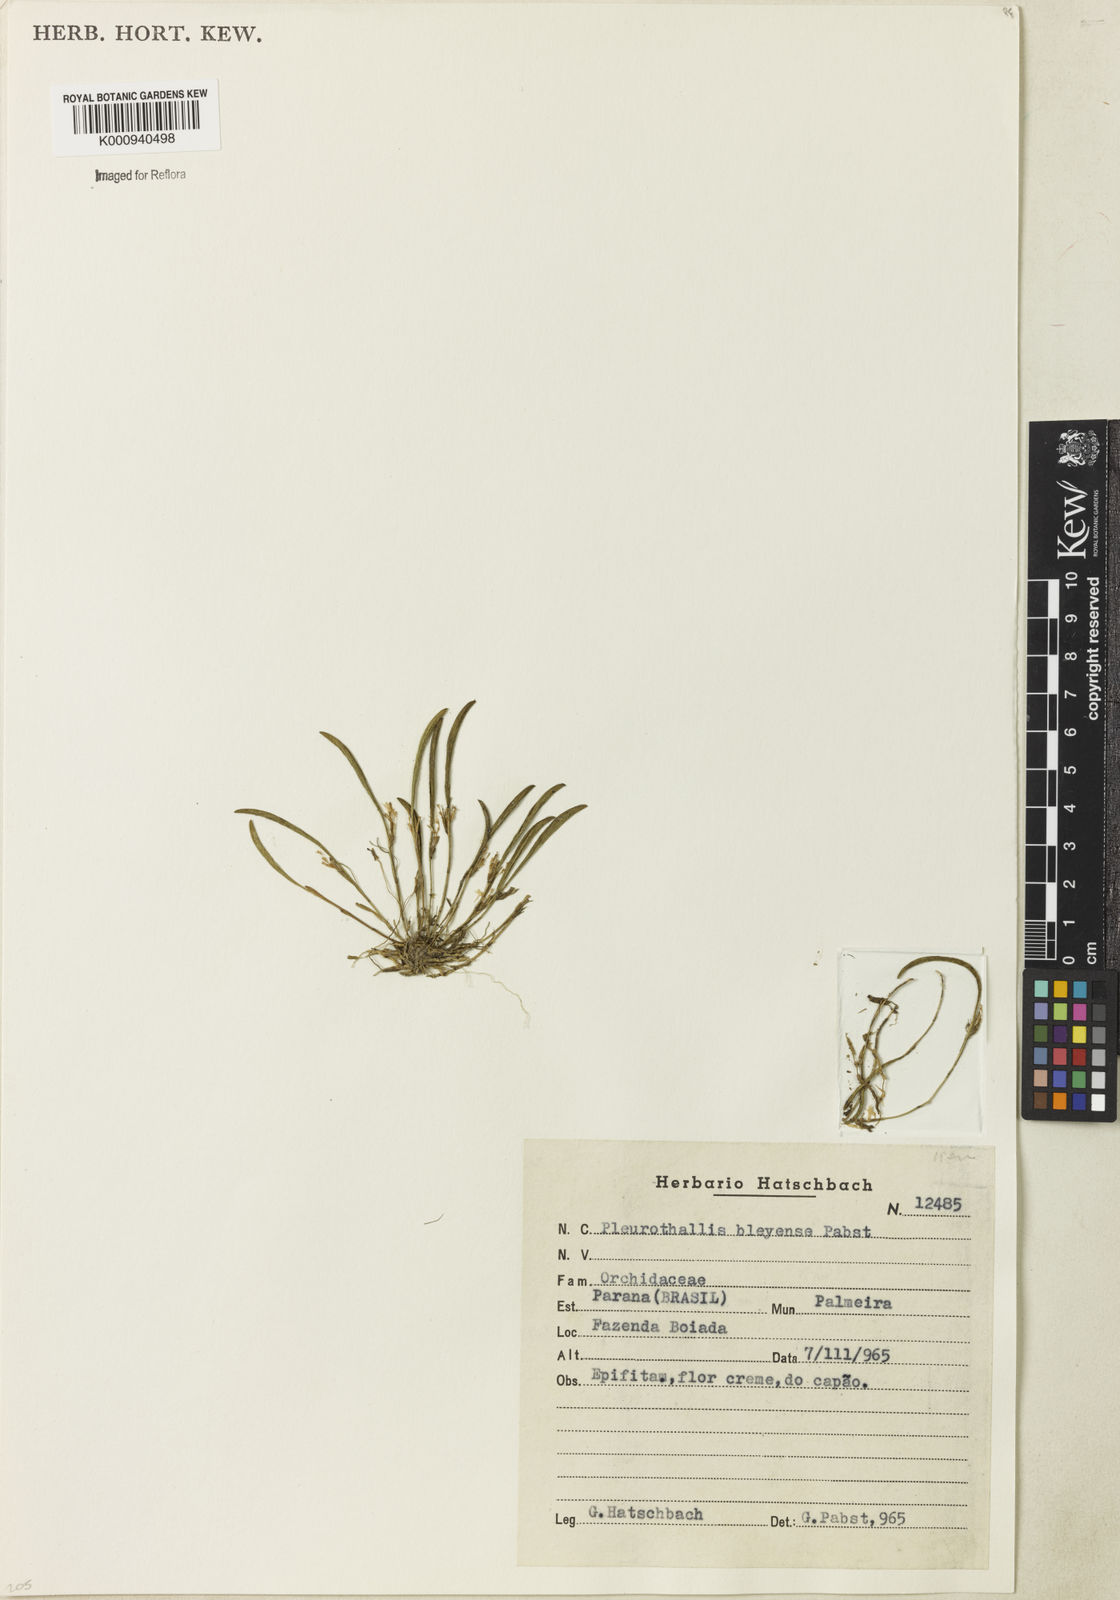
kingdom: Plantae
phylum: Tracheophyta
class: Liliopsida
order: Asparagales
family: Orchidaceae
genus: Anathallis
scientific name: Anathallis bleyensis
